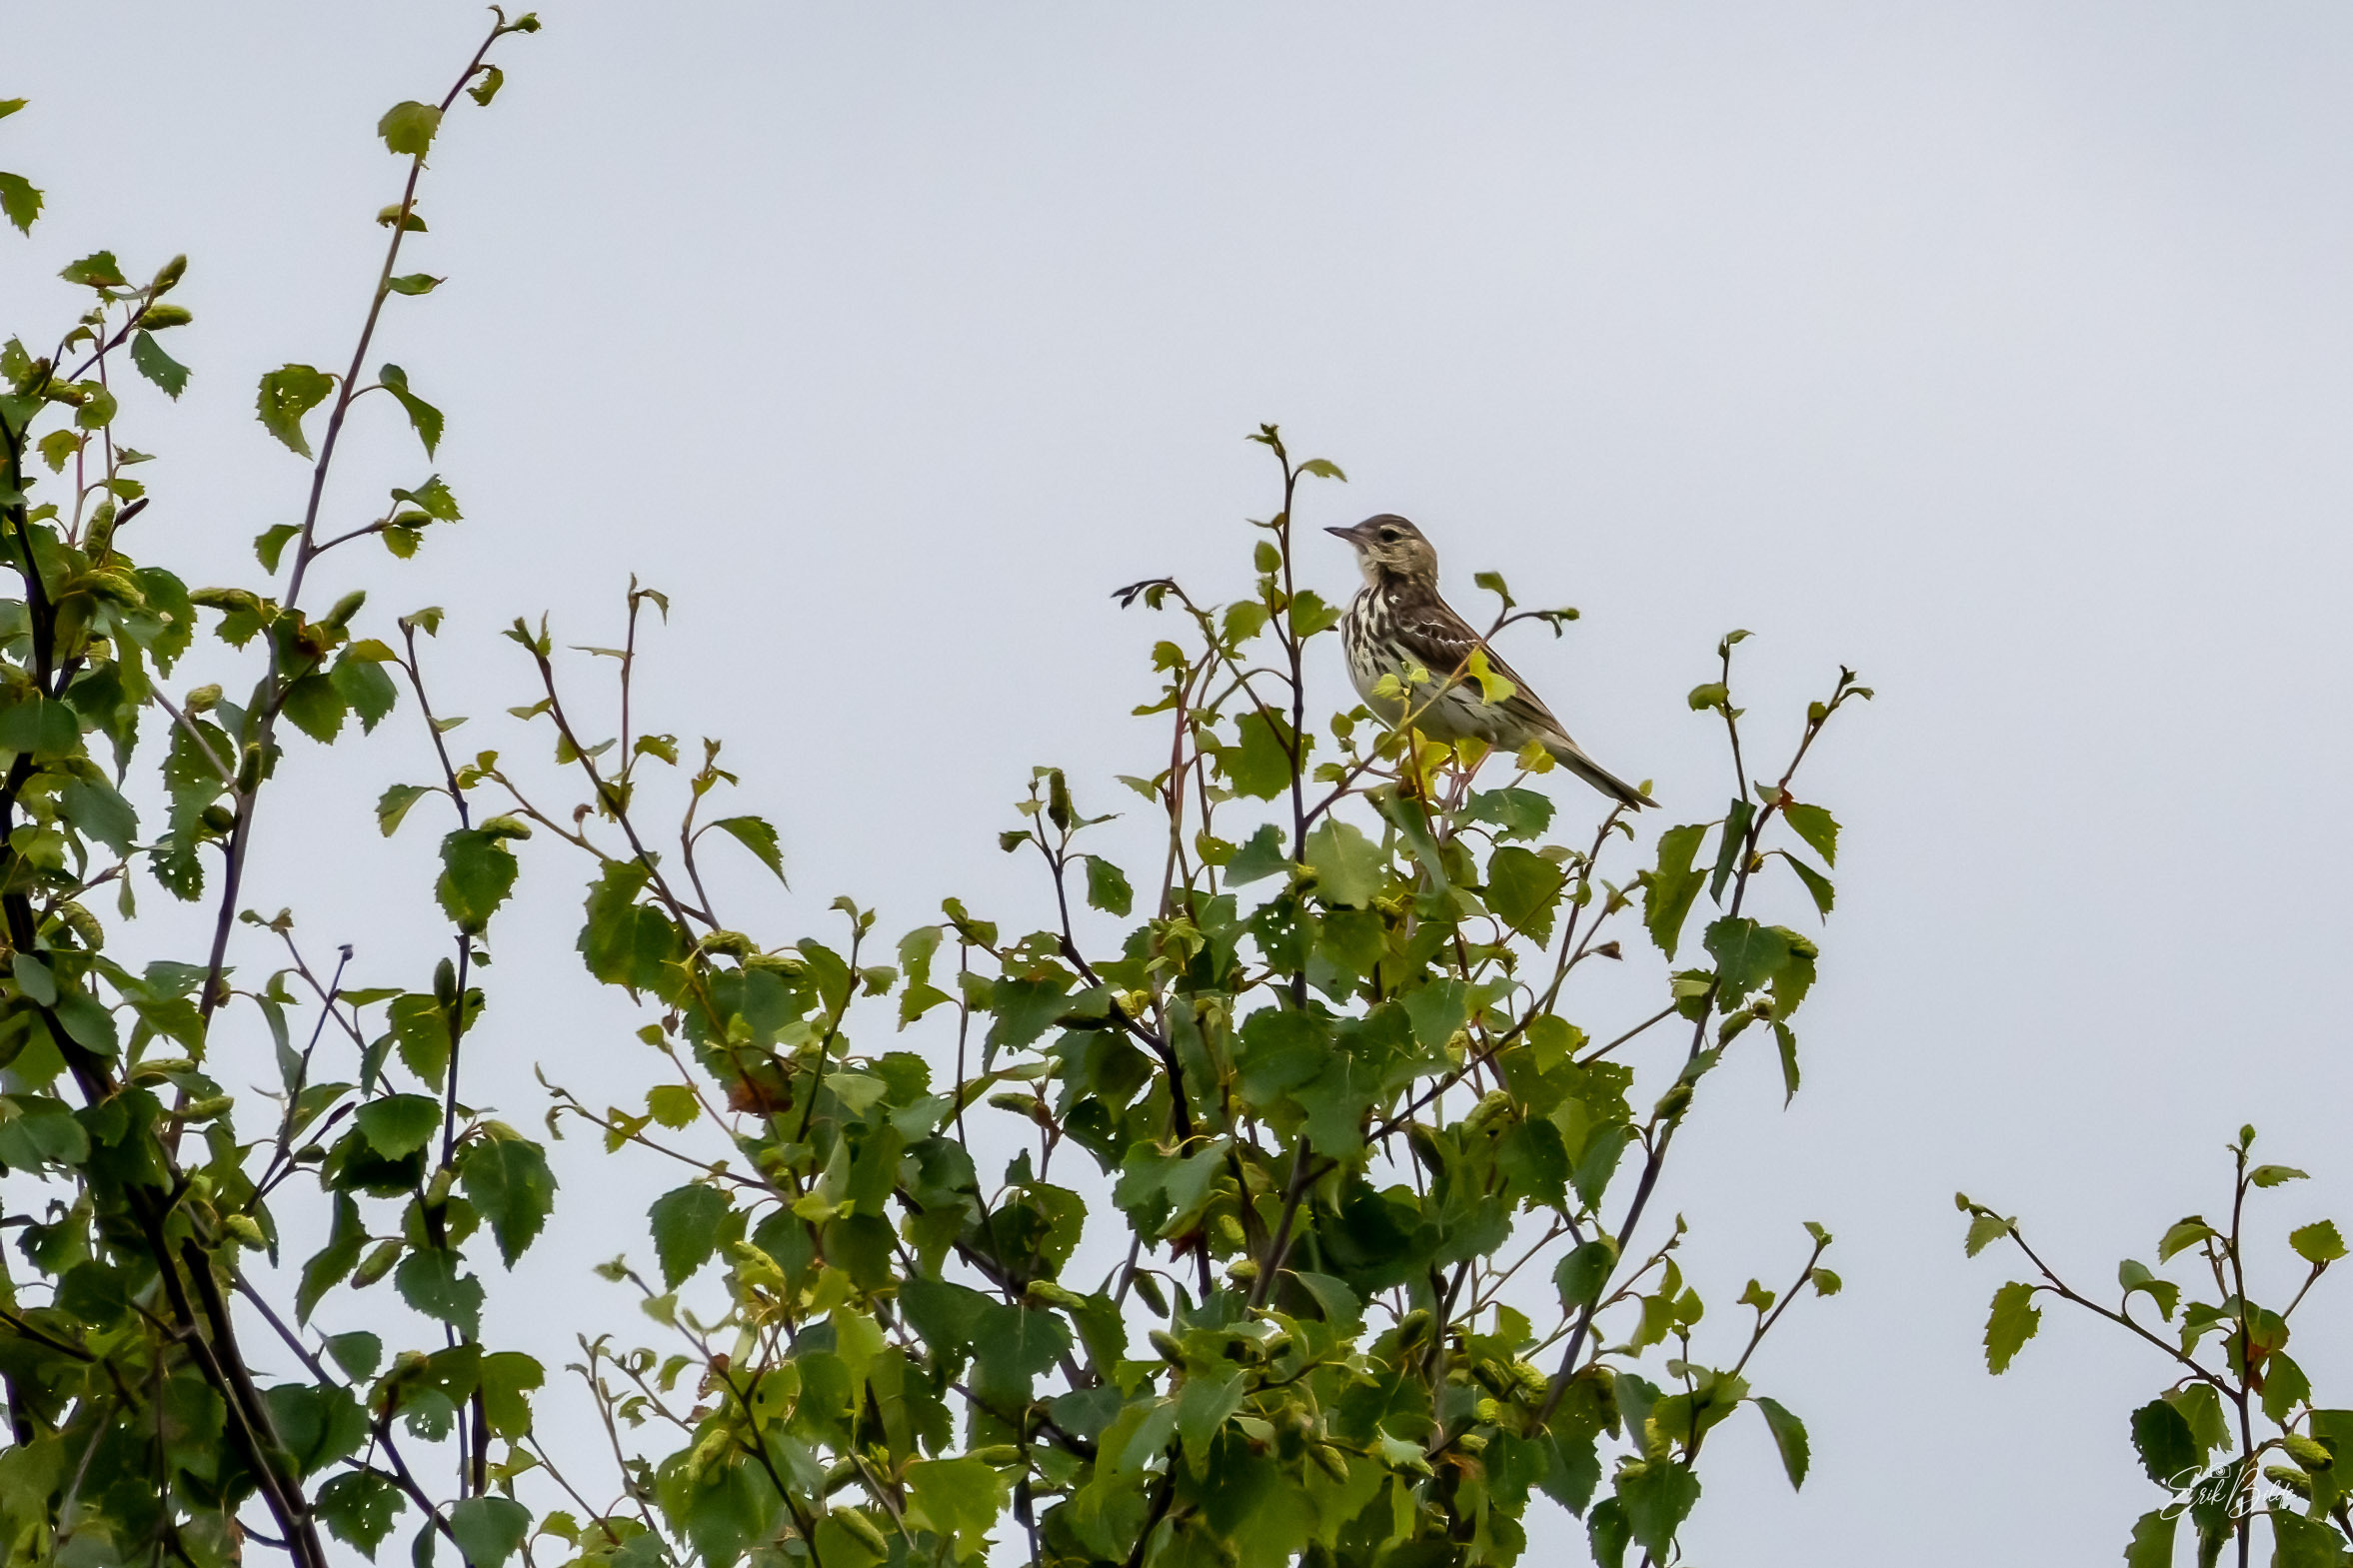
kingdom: Animalia
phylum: Chordata
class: Aves
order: Passeriformes
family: Motacillidae
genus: Anthus
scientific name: Anthus trivialis
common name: Skovpiber
